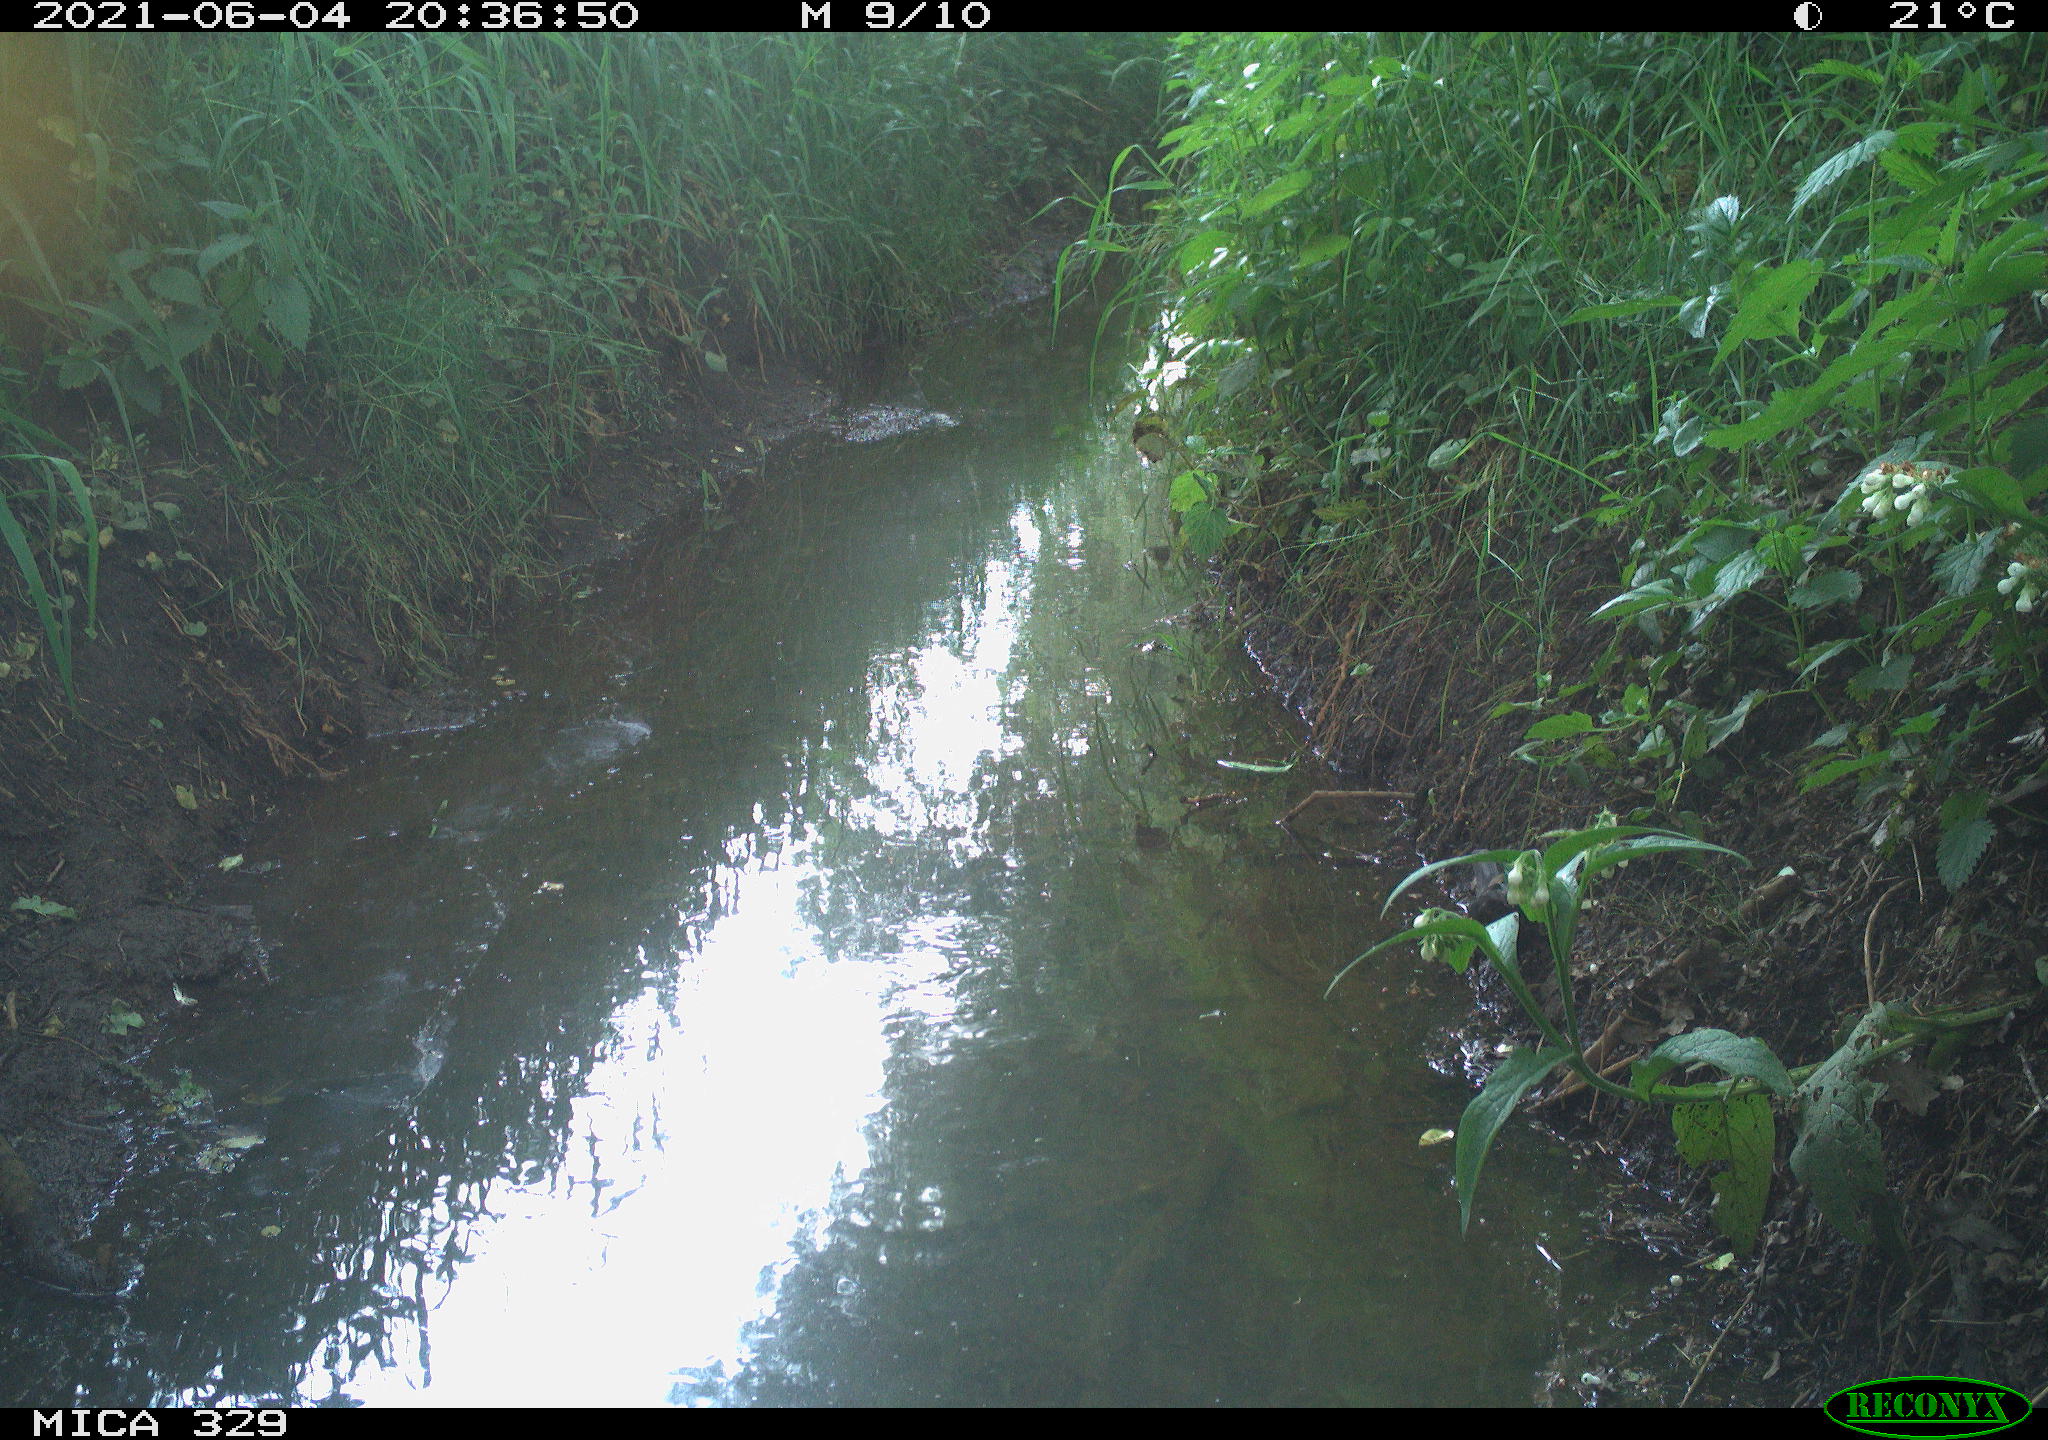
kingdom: Animalia
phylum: Chordata
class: Aves
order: Passeriformes
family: Turdidae
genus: Turdus
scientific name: Turdus merula
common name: Common blackbird
